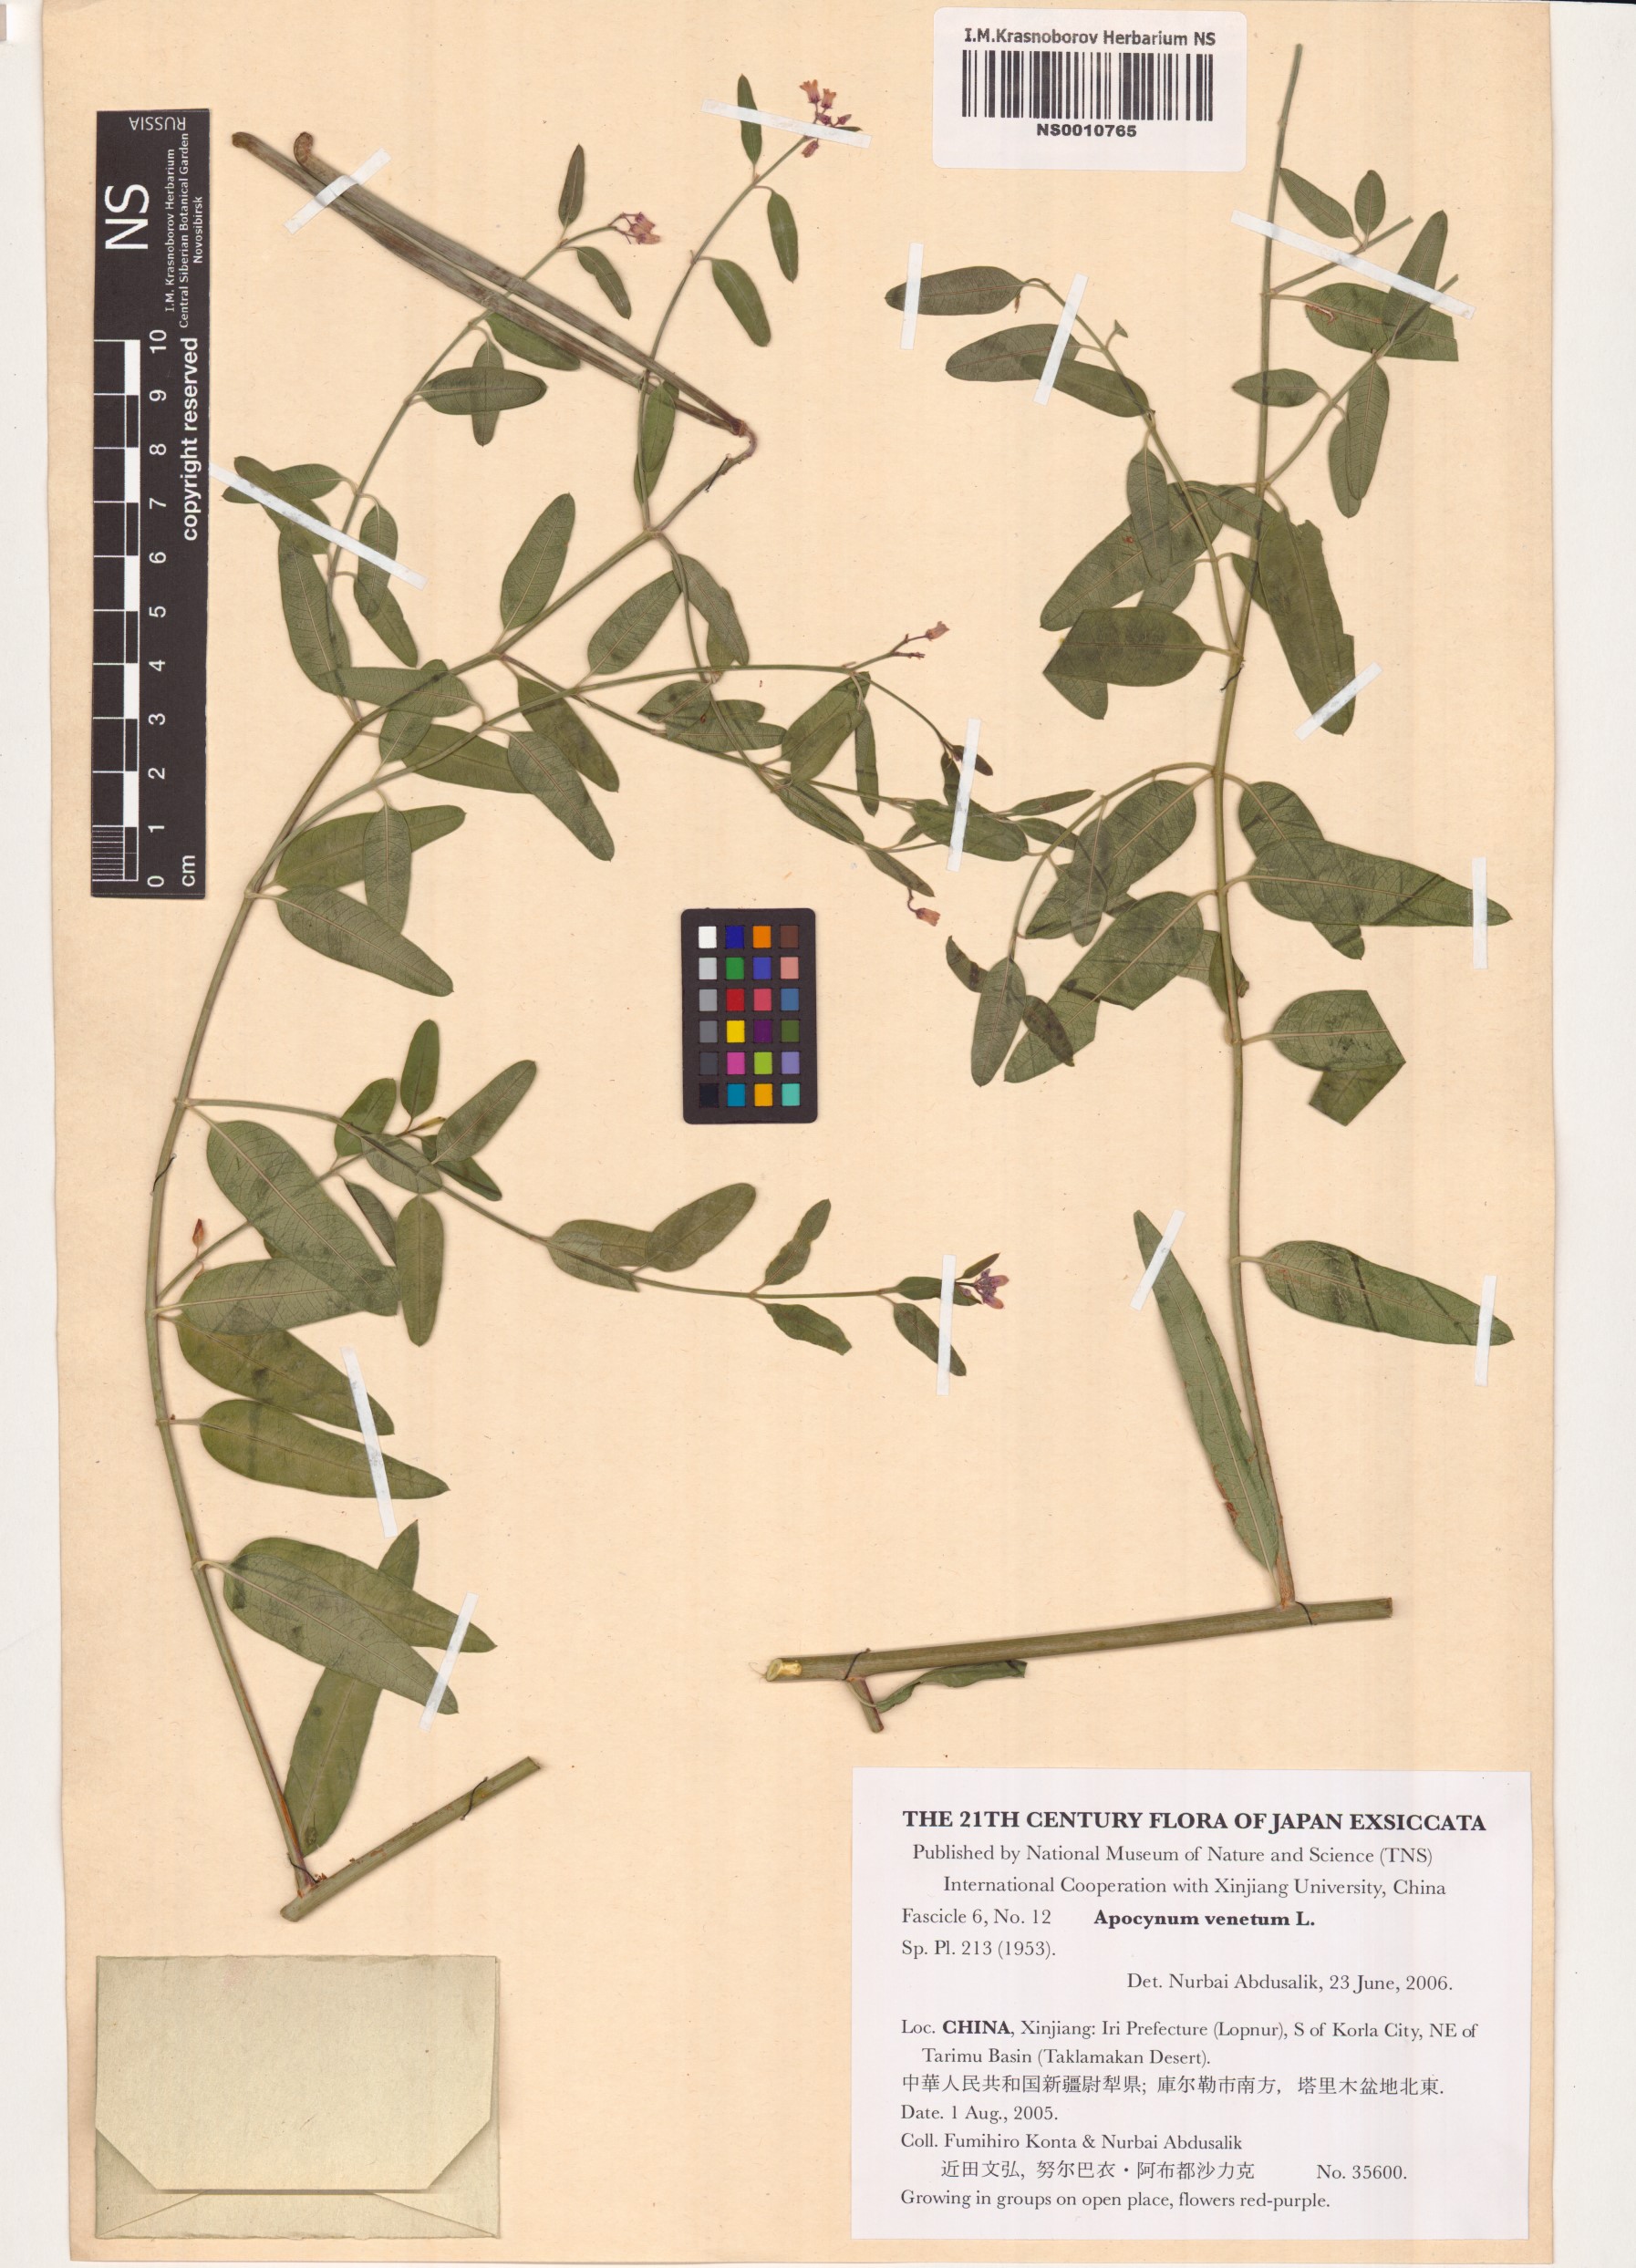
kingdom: Plantae
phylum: Tracheophyta
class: Magnoliopsida
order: Gentianales
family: Apocynaceae
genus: Poacynum
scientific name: Poacynum venetum
